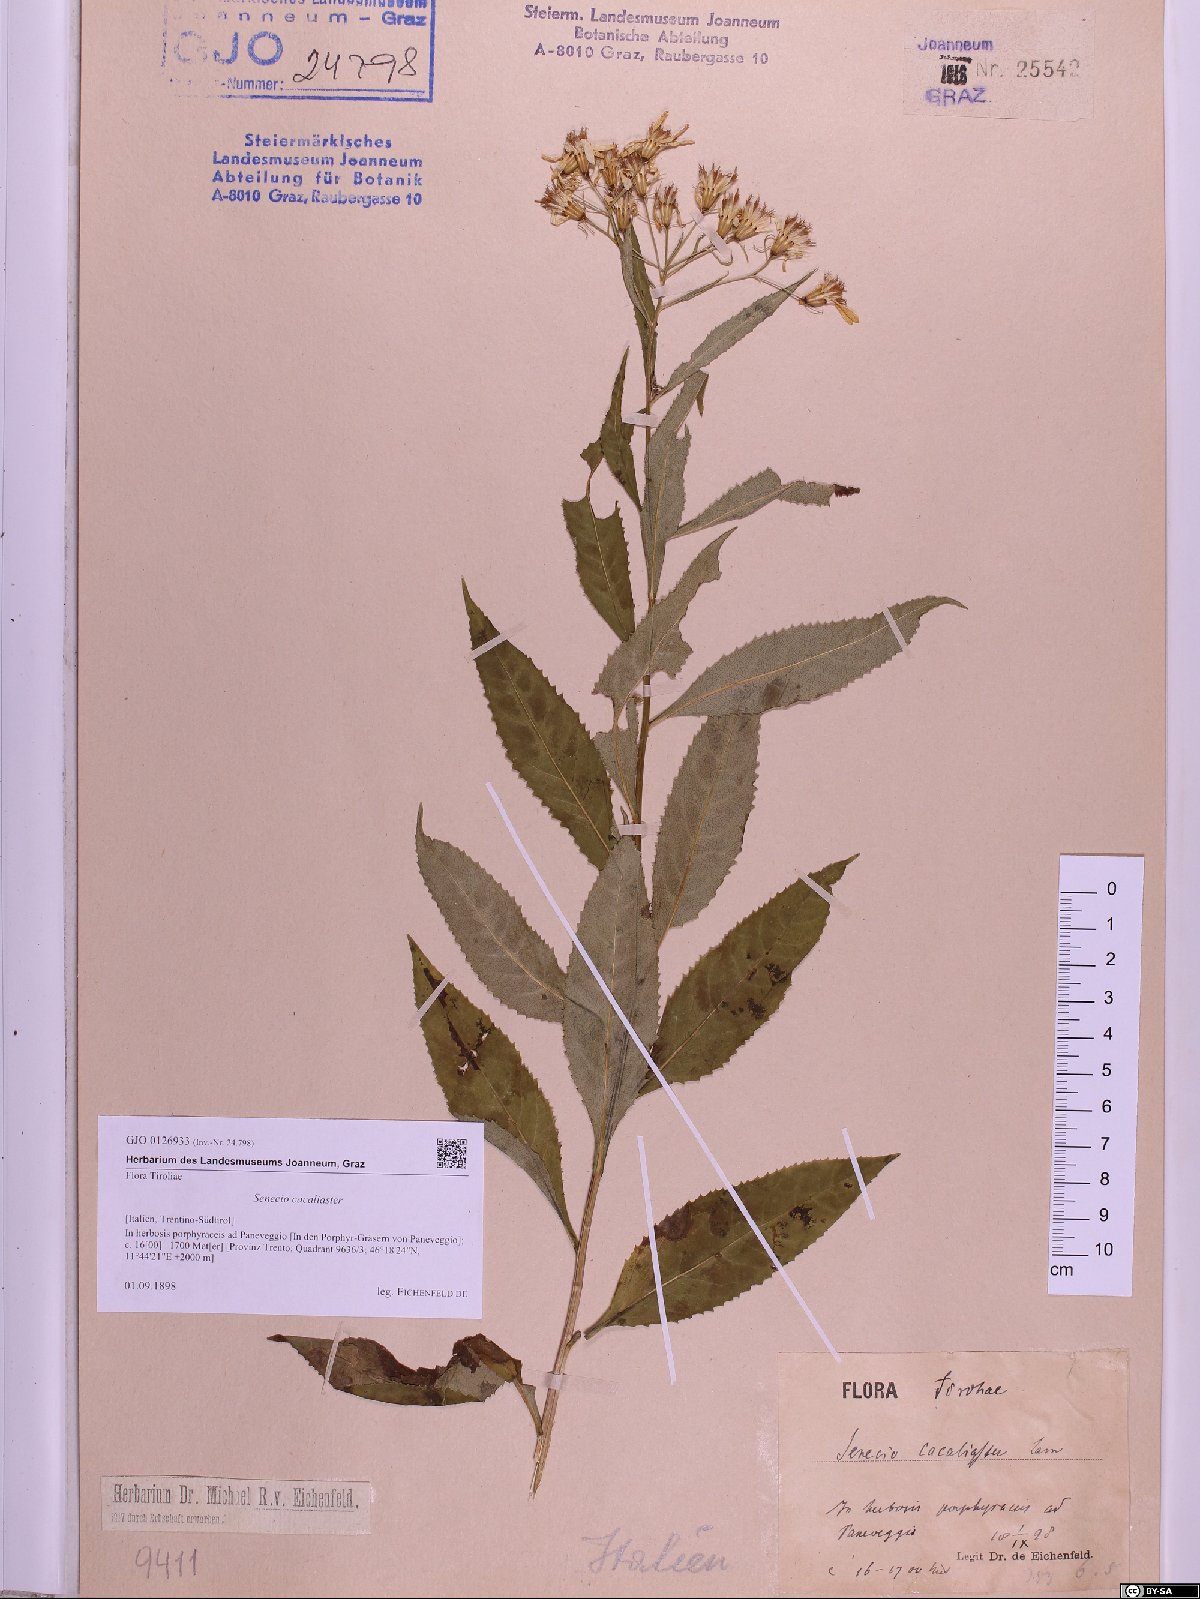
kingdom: Plantae
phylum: Tracheophyta
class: Magnoliopsida
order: Asterales
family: Asteraceae
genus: Senecio
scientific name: Senecio cacaliaster
